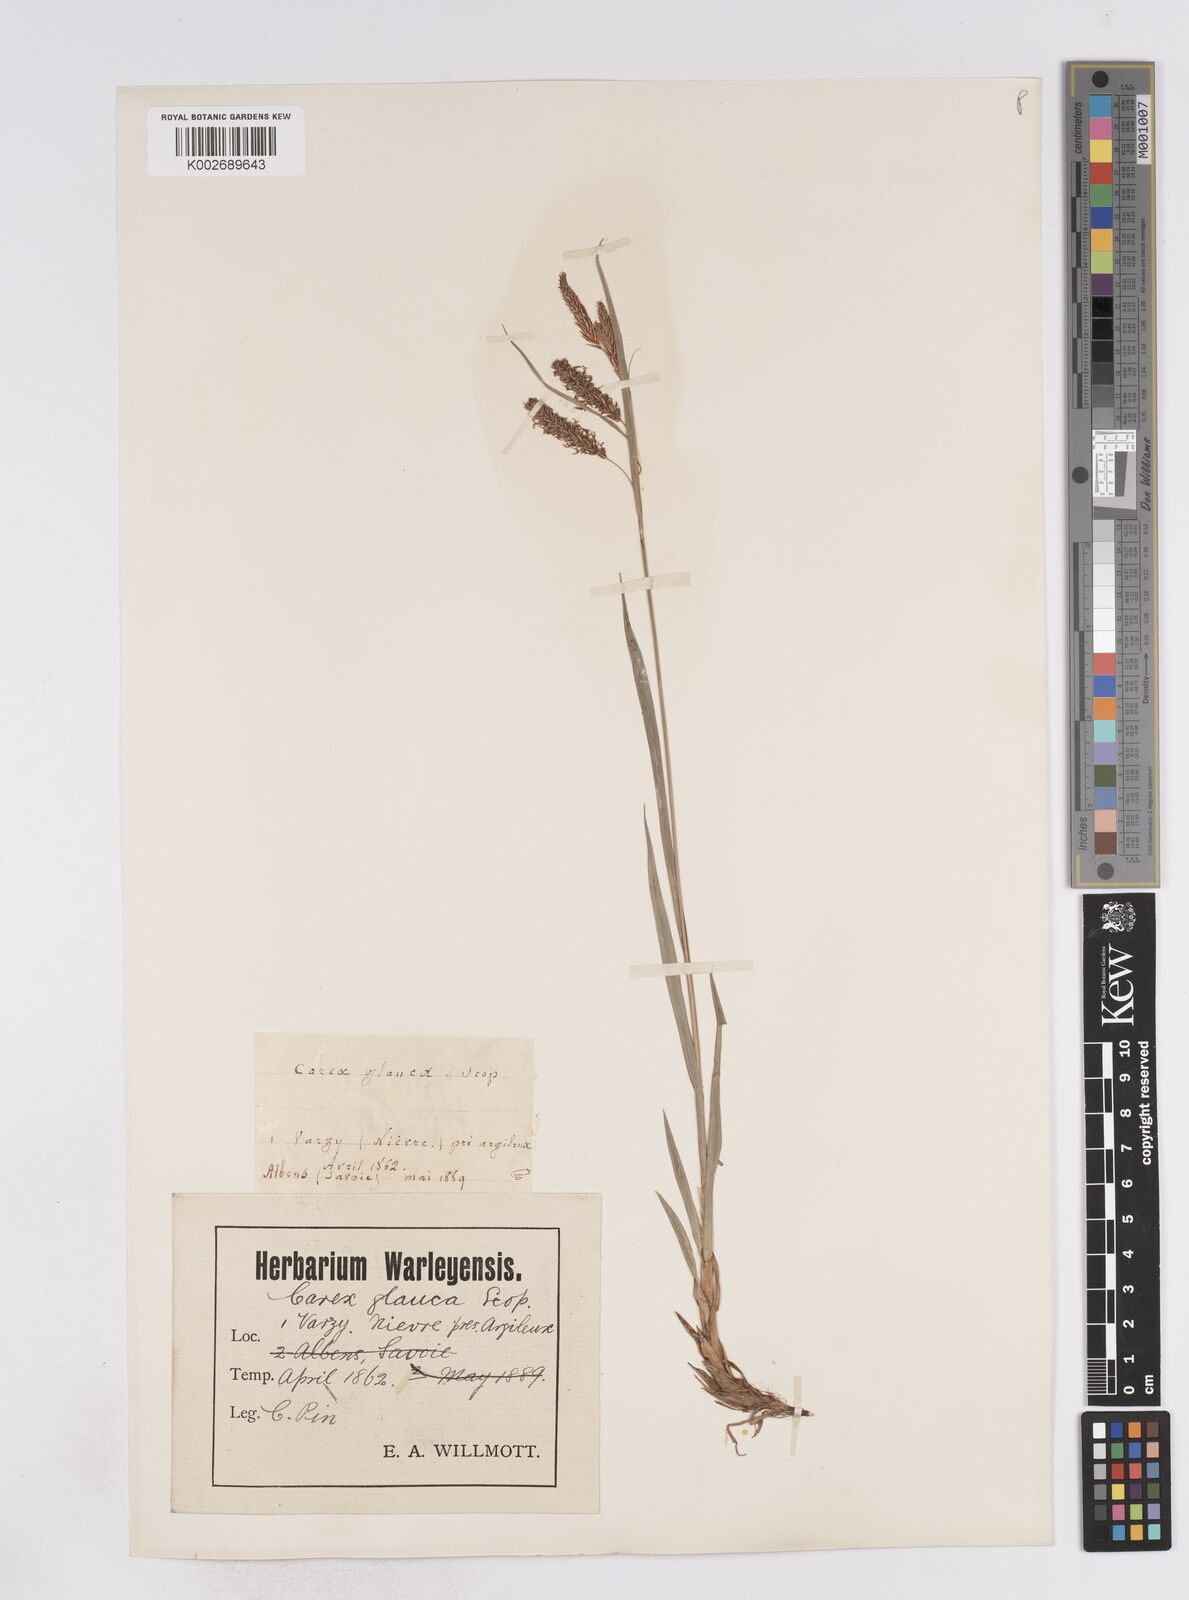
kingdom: Plantae
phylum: Tracheophyta
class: Liliopsida
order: Poales
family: Cyperaceae
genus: Carex
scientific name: Carex flacca
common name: Glaucous sedge
